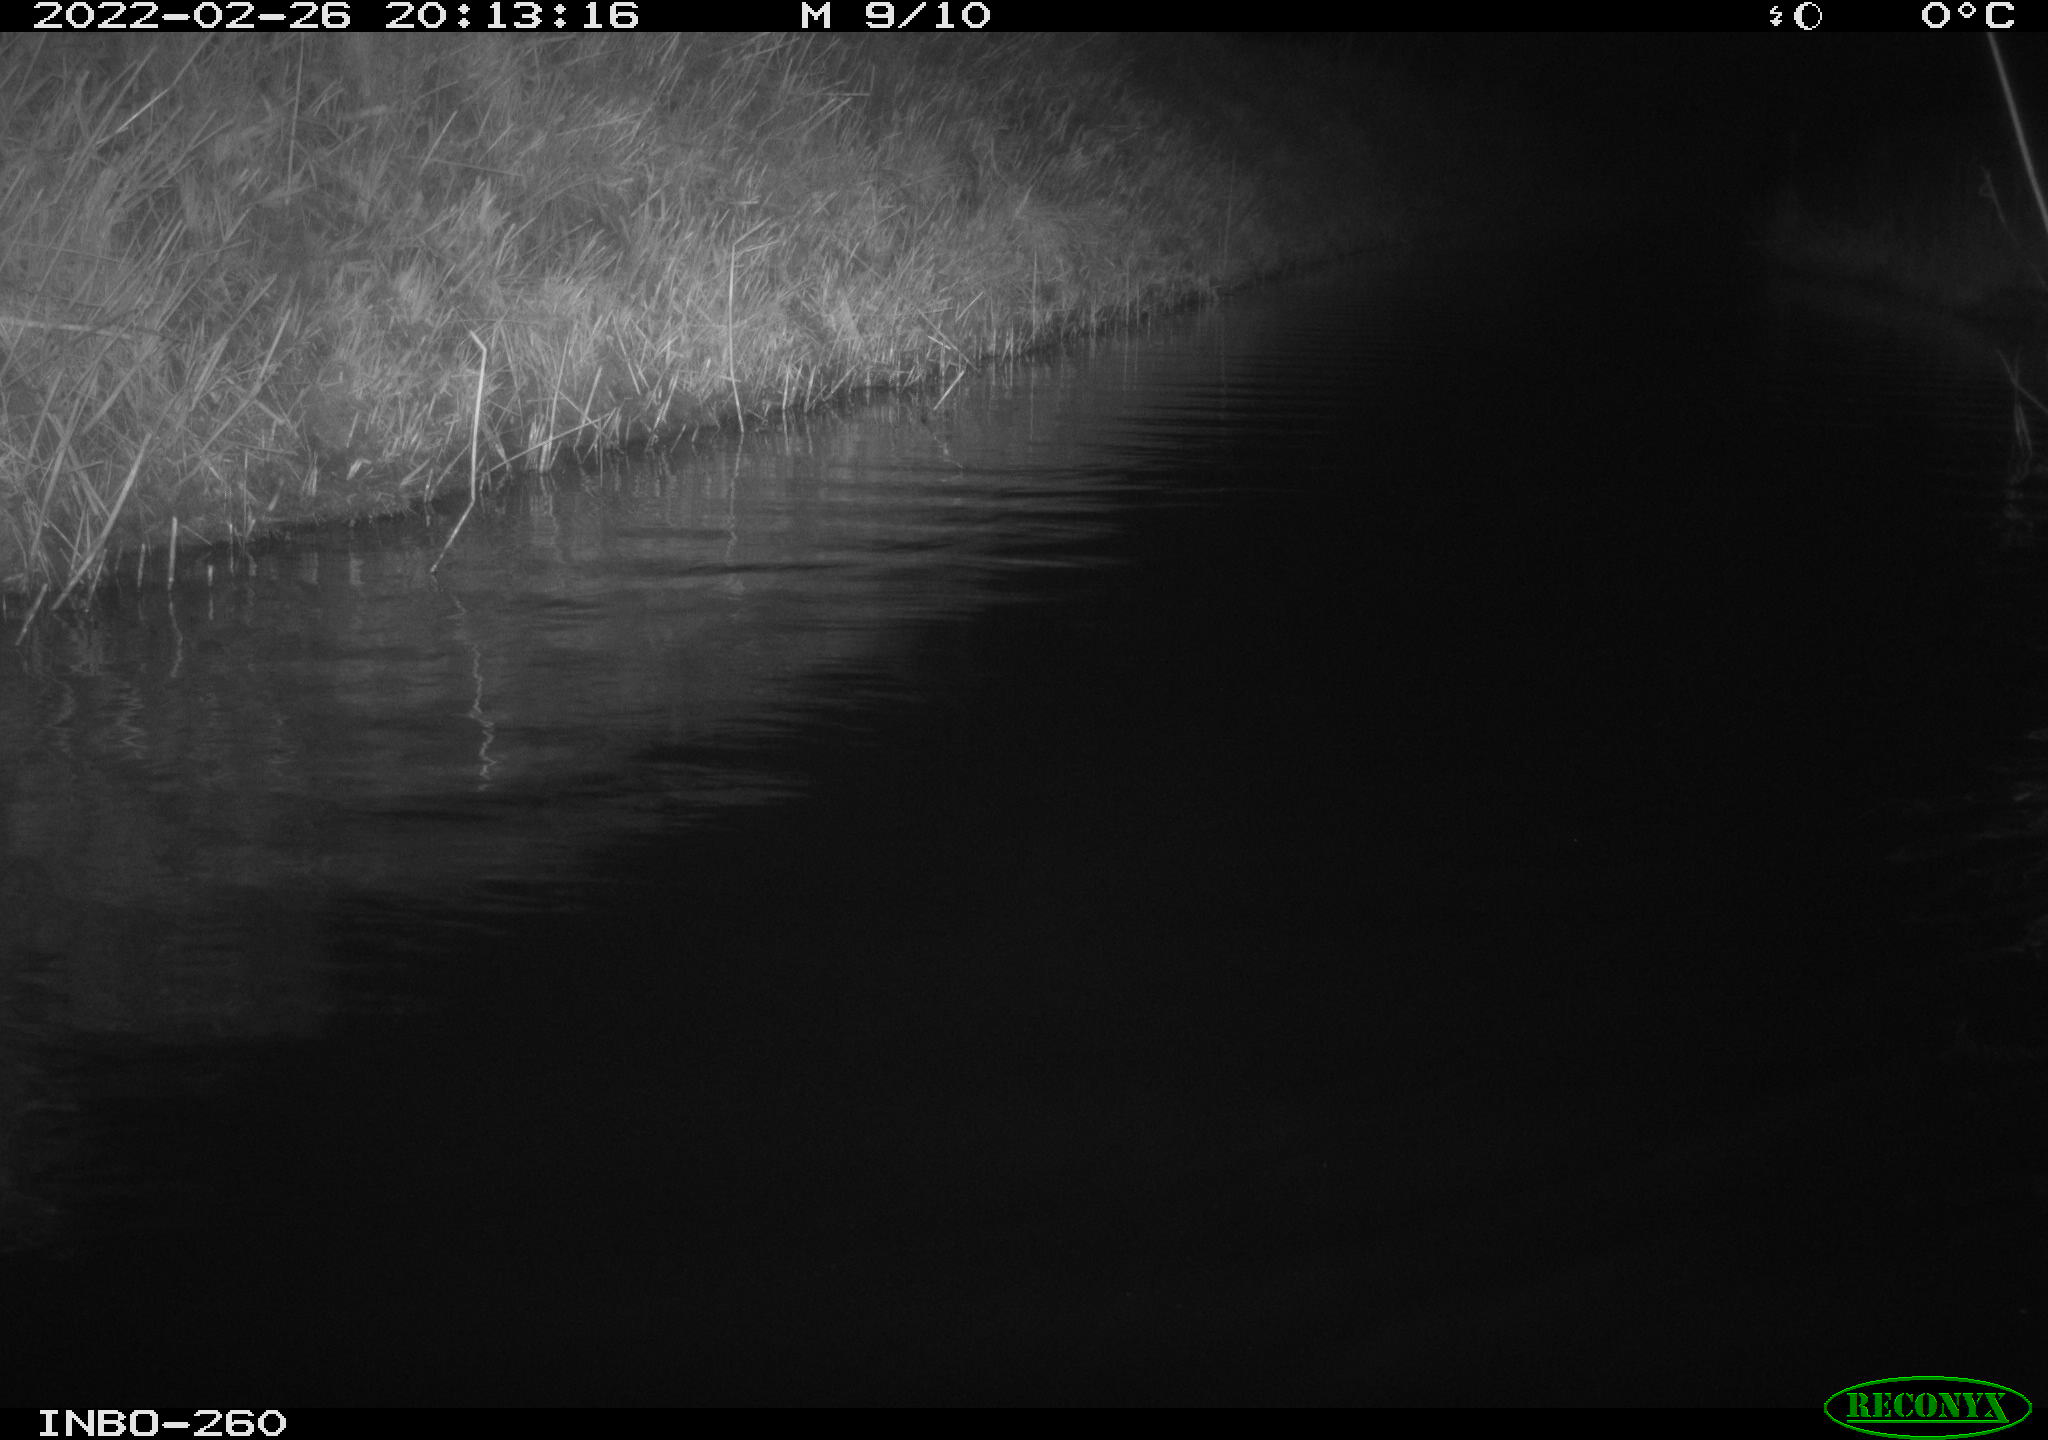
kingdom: Animalia
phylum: Chordata
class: Mammalia
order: Rodentia
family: Cricetidae
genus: Ondatra
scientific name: Ondatra zibethicus
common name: Muskrat
